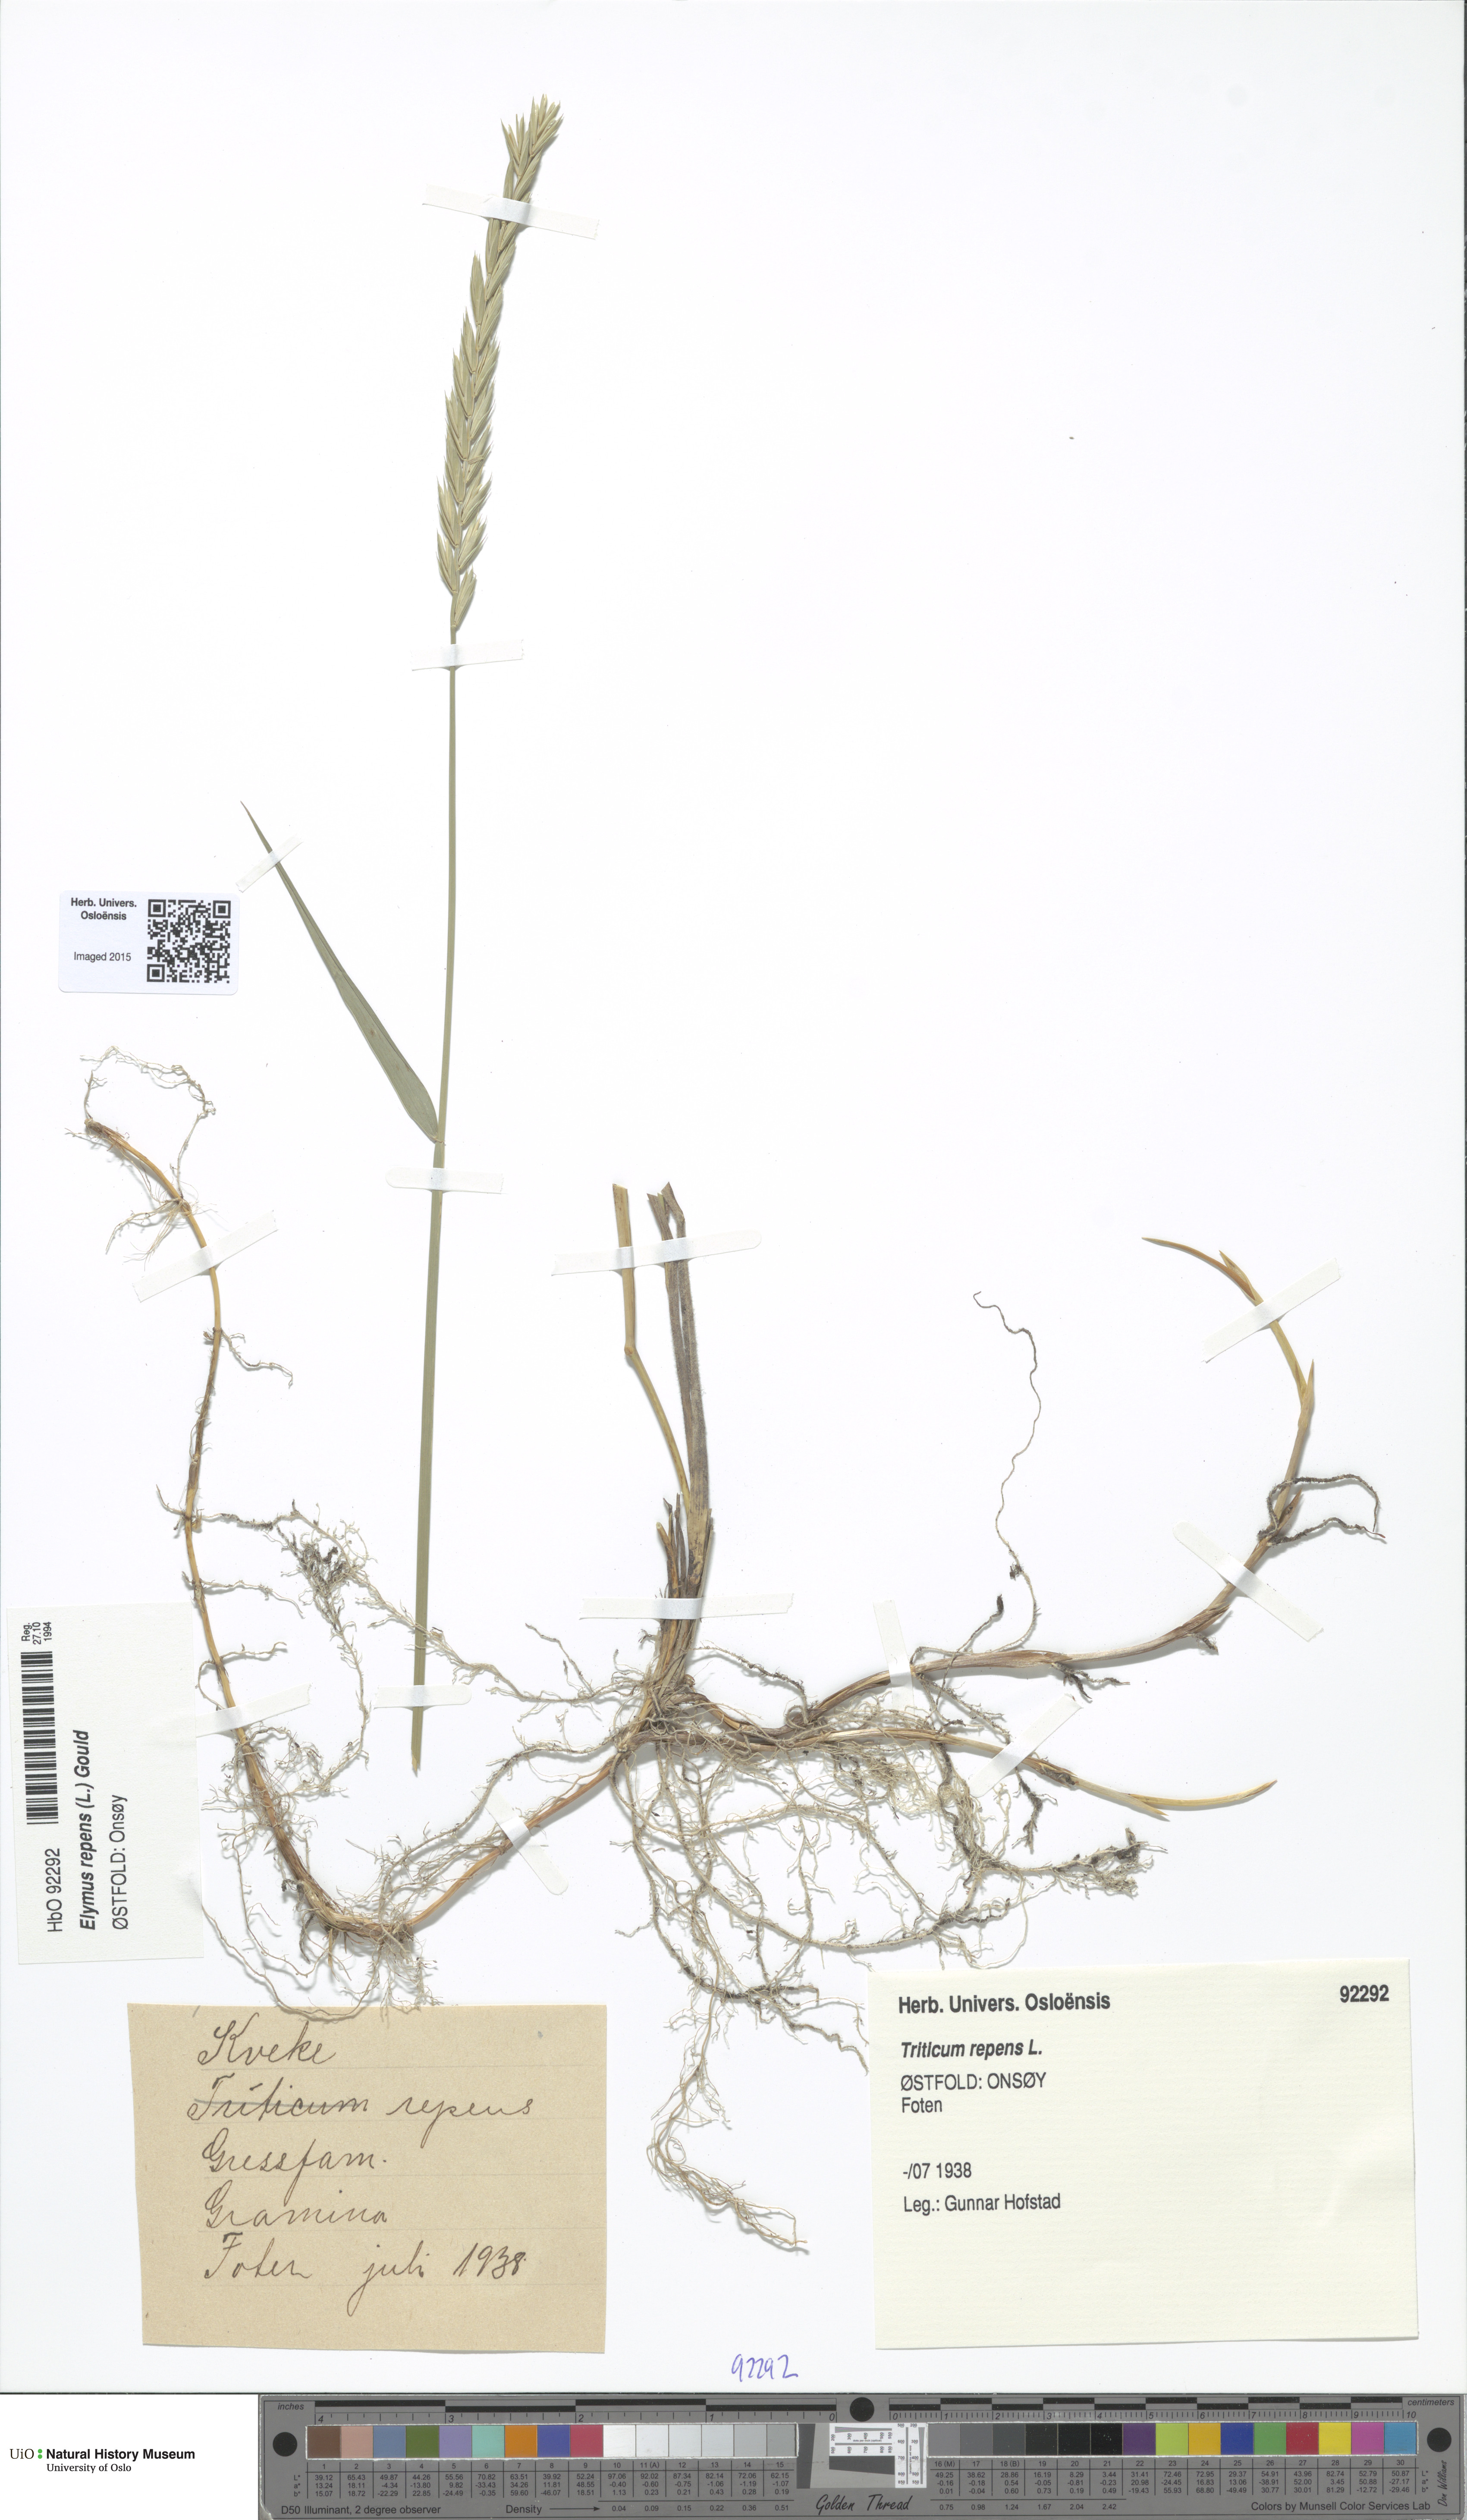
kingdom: Plantae
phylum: Tracheophyta
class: Liliopsida
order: Poales
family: Poaceae
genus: Elymus
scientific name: Elymus repens
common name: Quackgrass
